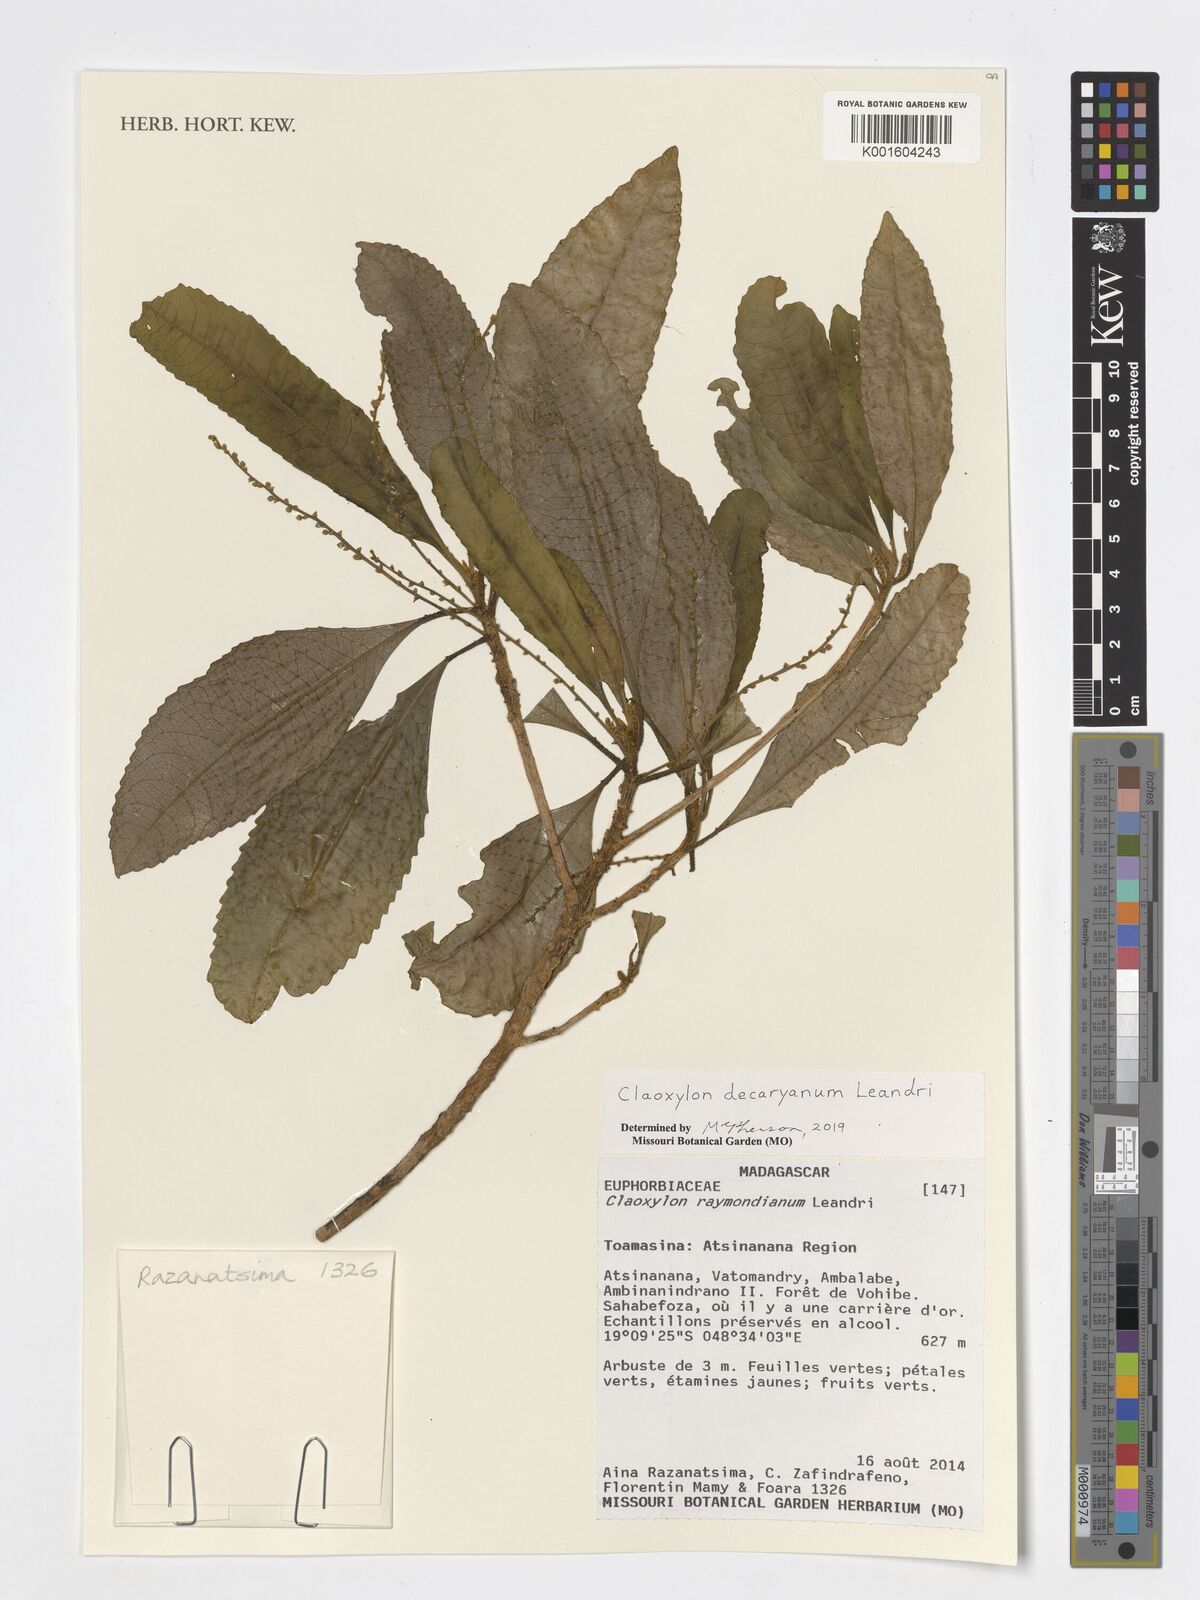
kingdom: Plantae
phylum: Tracheophyta
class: Magnoliopsida
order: Malpighiales
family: Euphorbiaceae
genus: Claoxylon
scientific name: Claoxylon decaryanum
